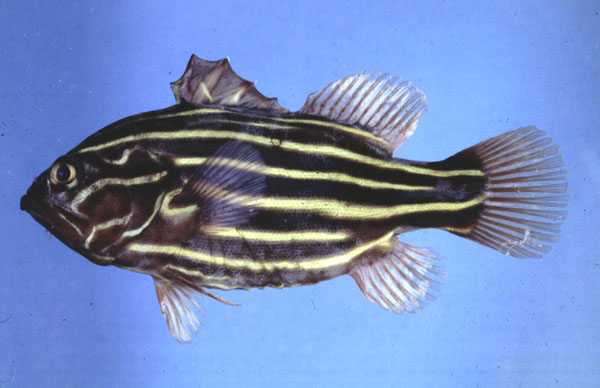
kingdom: Animalia
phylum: Chordata
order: Perciformes
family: Serranidae
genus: Grammistes
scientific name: Grammistes sexlineatus
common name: Sixline soapfish
